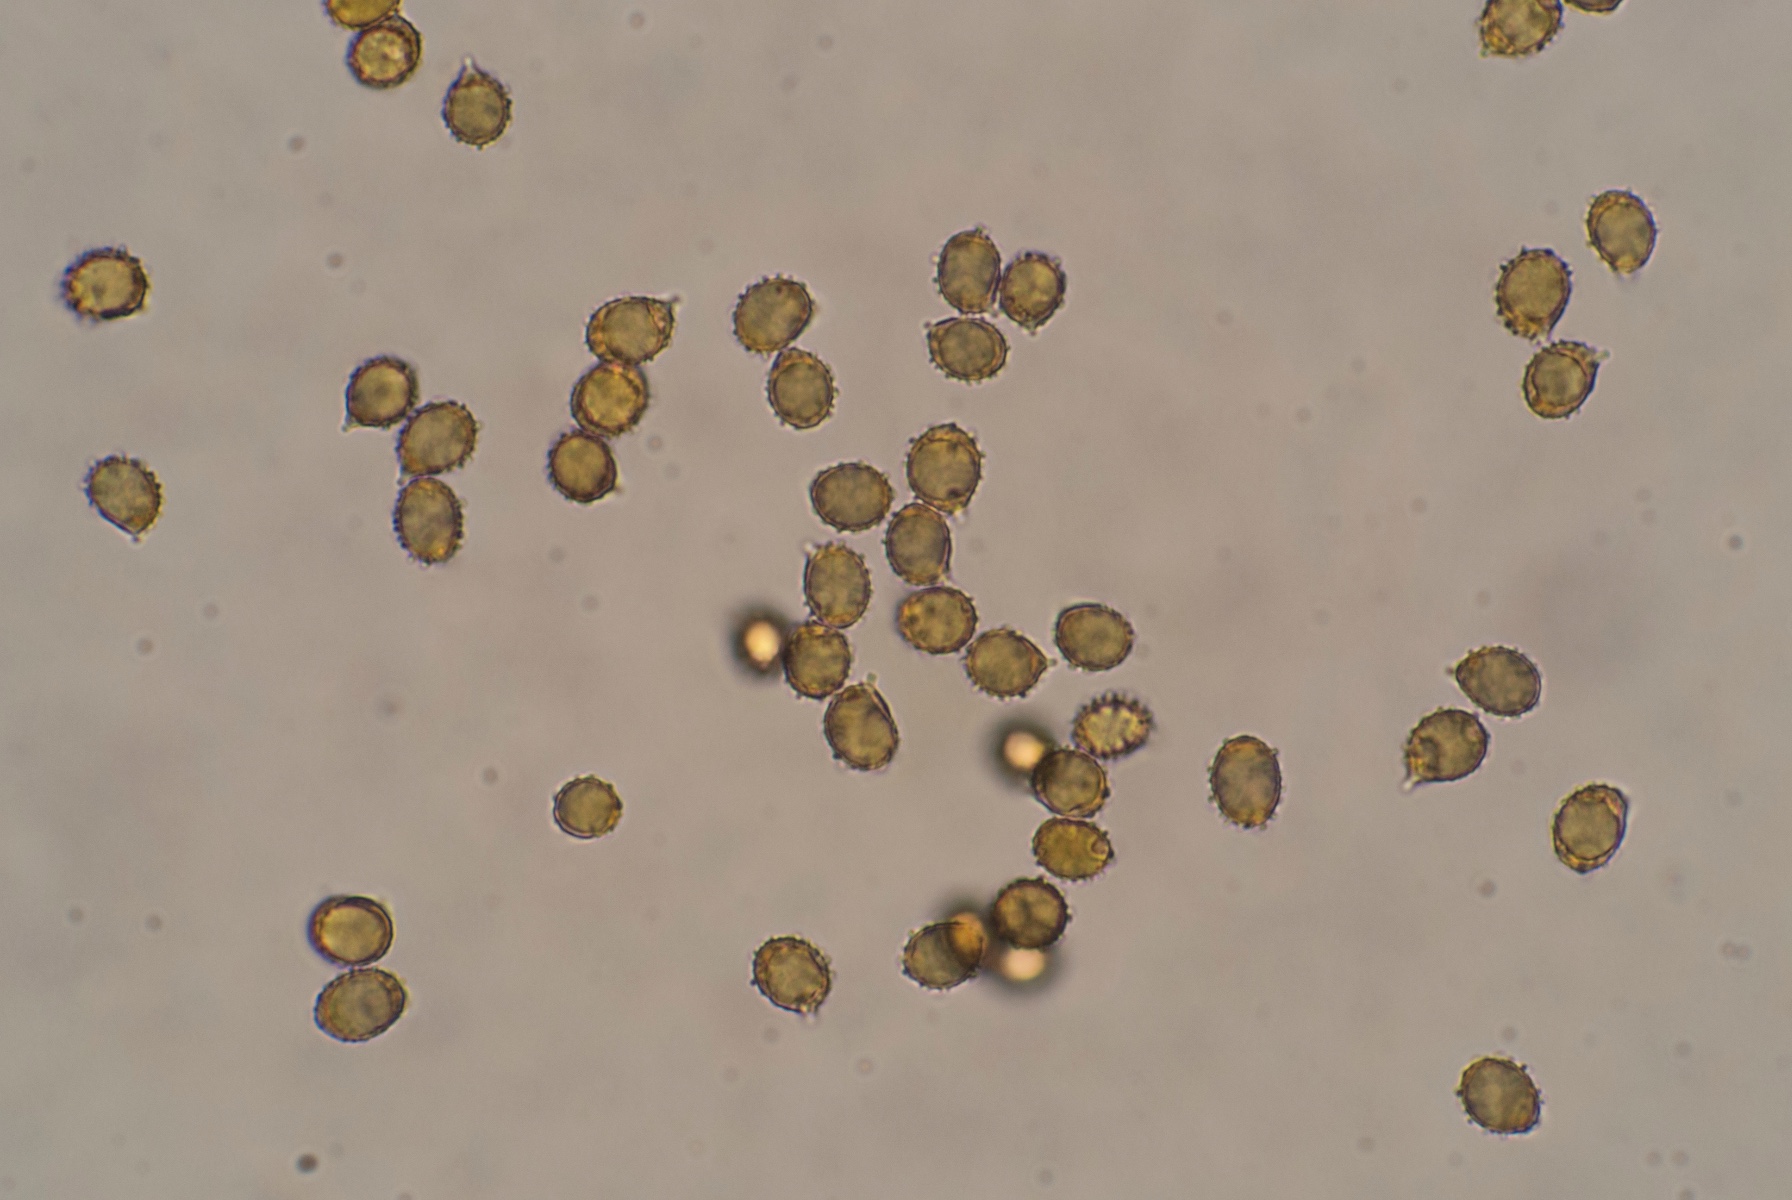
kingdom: Fungi
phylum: Basidiomycota
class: Agaricomycetes
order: Russulales
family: Russulaceae
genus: Russula
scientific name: Russula gracillima
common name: slank skørhat
